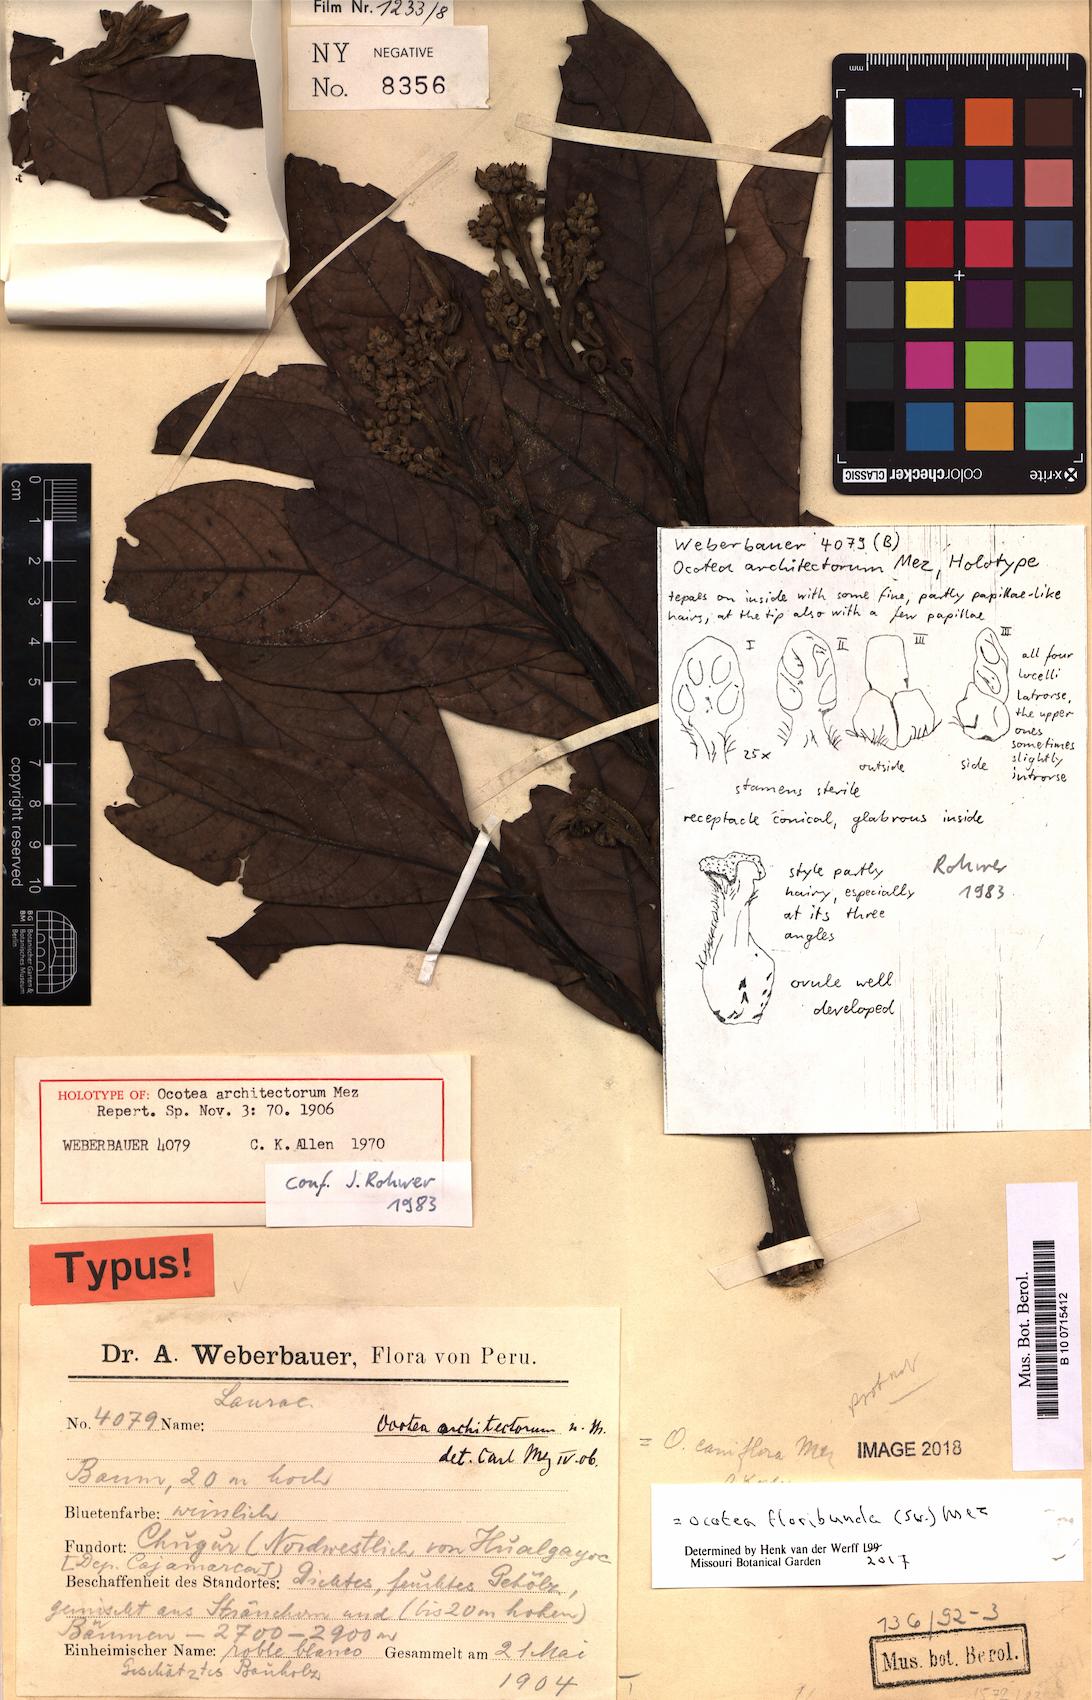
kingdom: Plantae
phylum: Tracheophyta
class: Magnoliopsida
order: Laurales
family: Lauraceae
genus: Ocotea
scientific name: Ocotea floribunda
